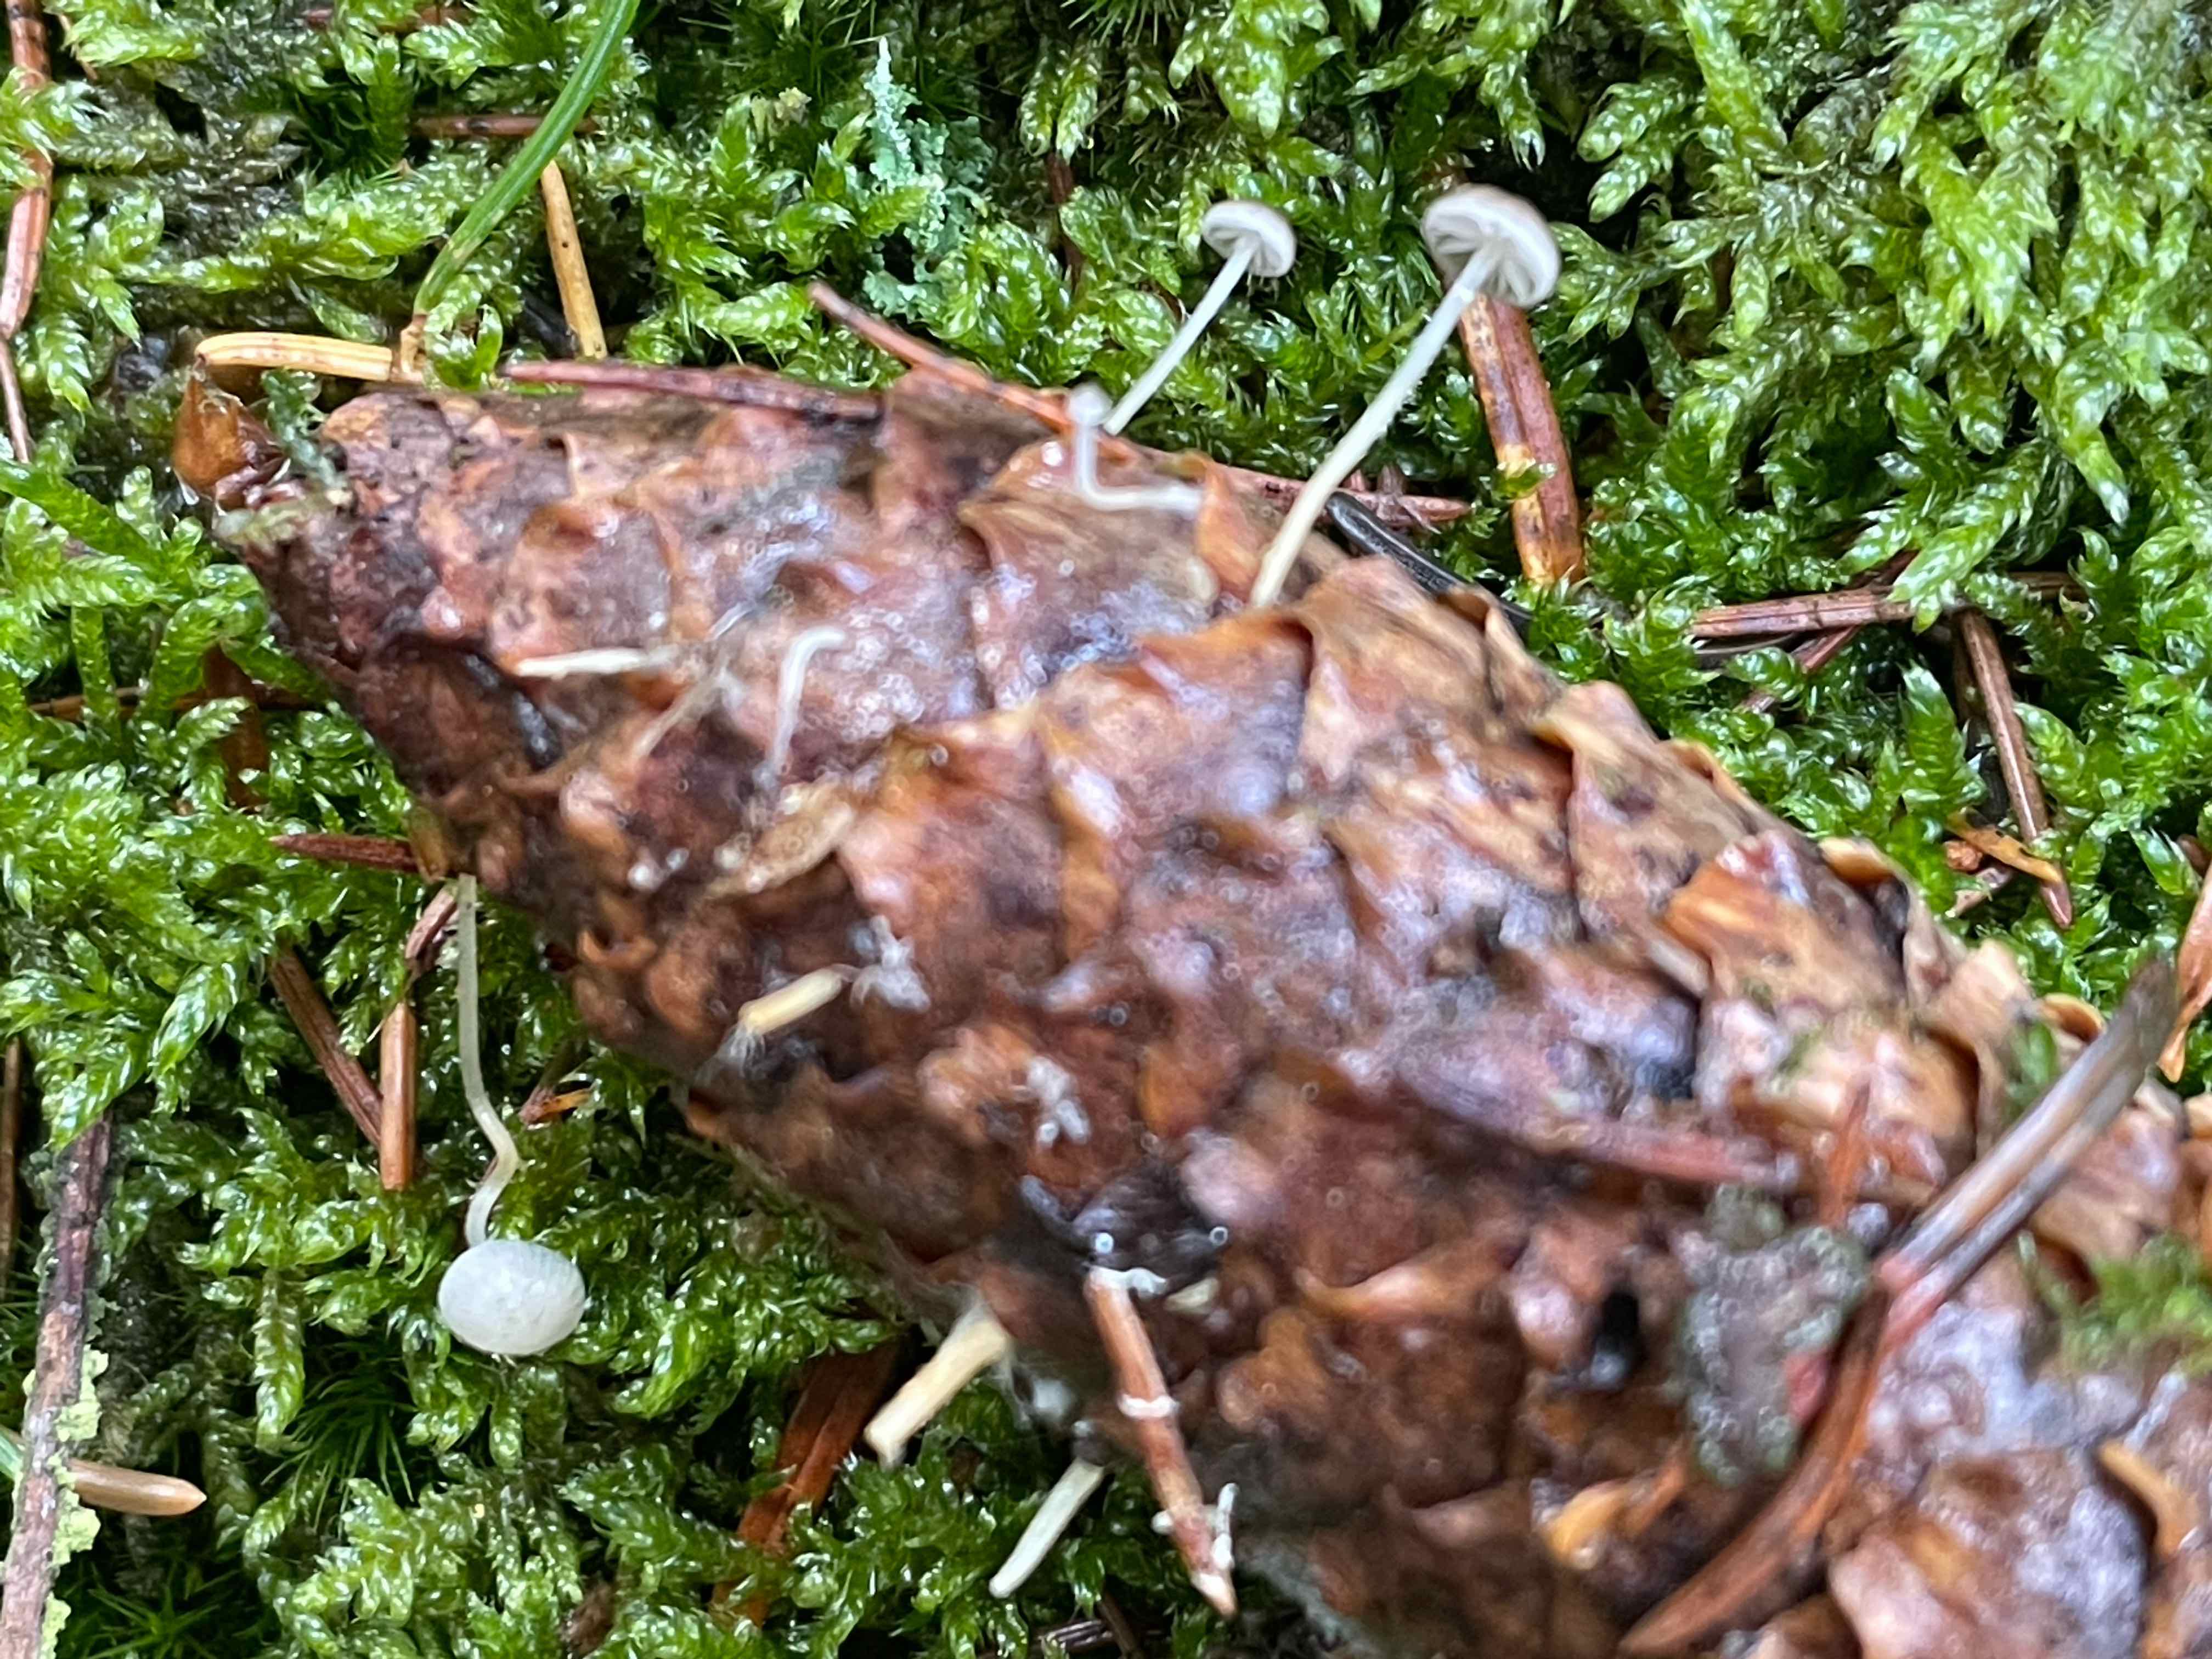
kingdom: Fungi
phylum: Basidiomycota
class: Agaricomycetes
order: Agaricales
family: Physalacriaceae
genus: Strobilurus
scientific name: Strobilurus esculentus
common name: gran-koglehat
